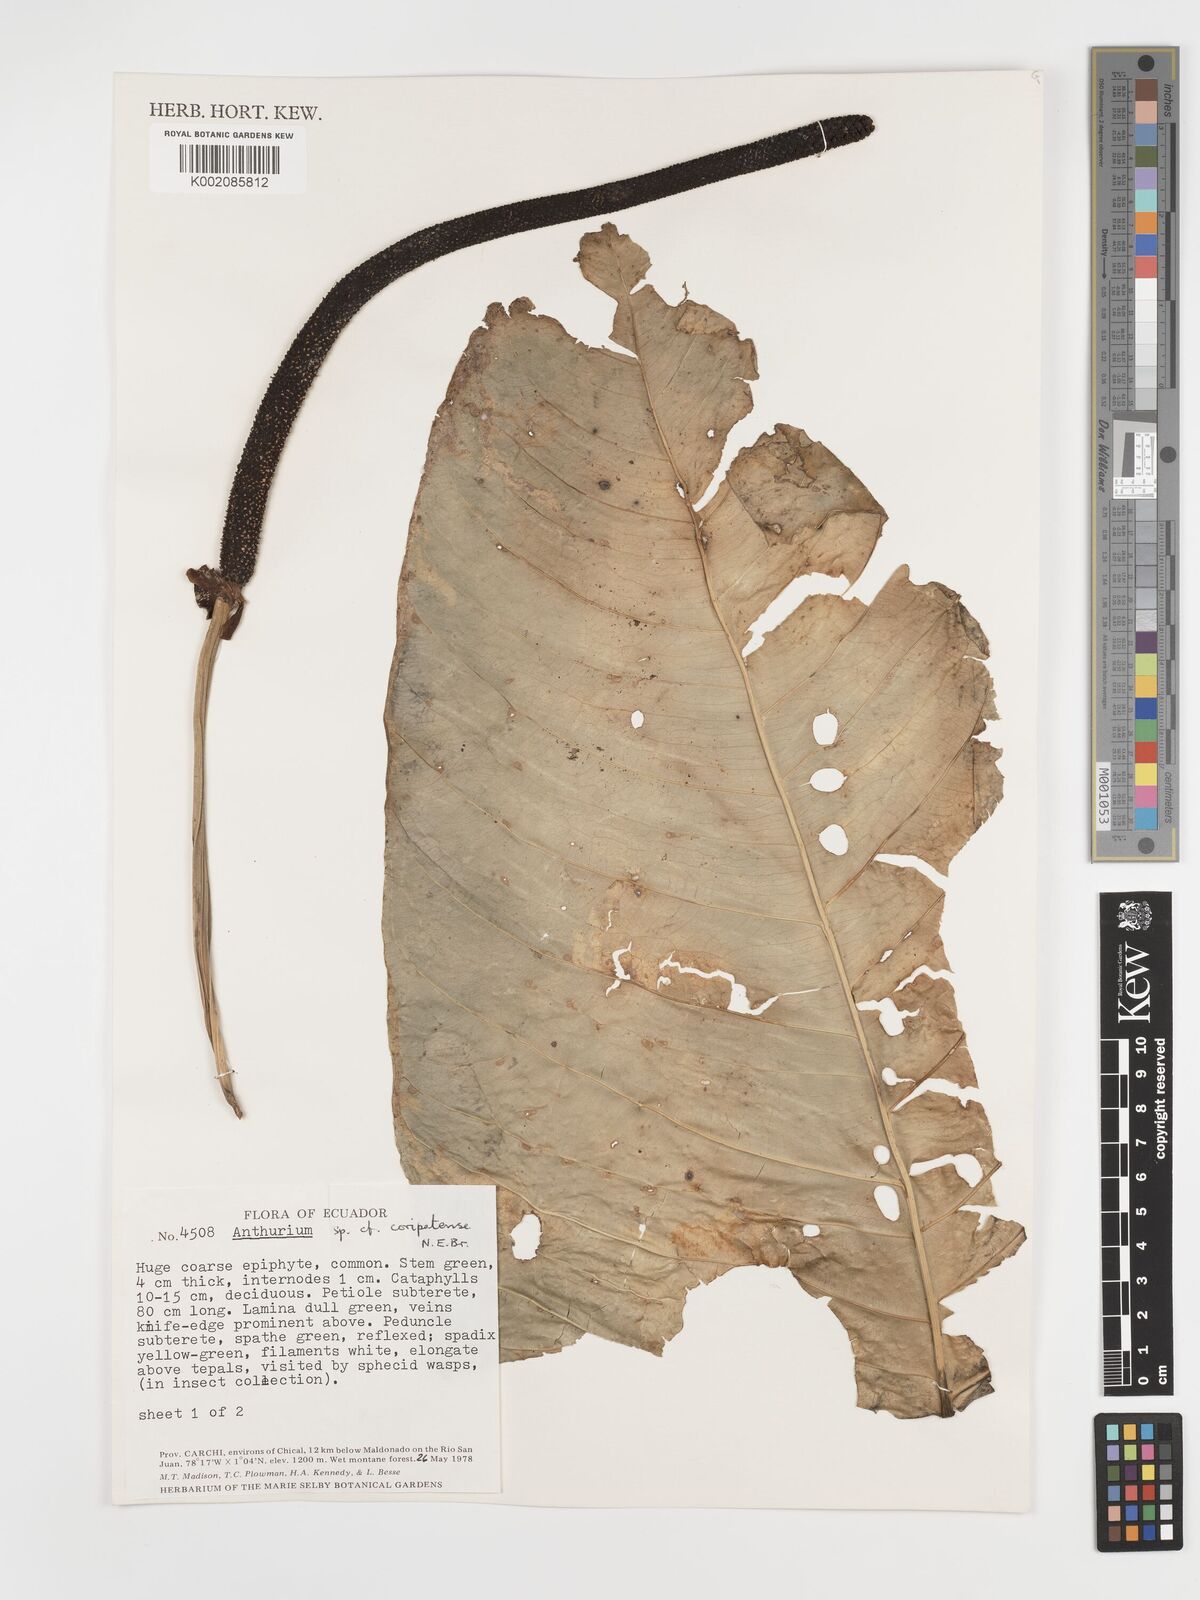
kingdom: Plantae
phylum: Tracheophyta
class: Liliopsida
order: Alismatales
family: Araceae
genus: Anthurium
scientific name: Anthurium coripatense
